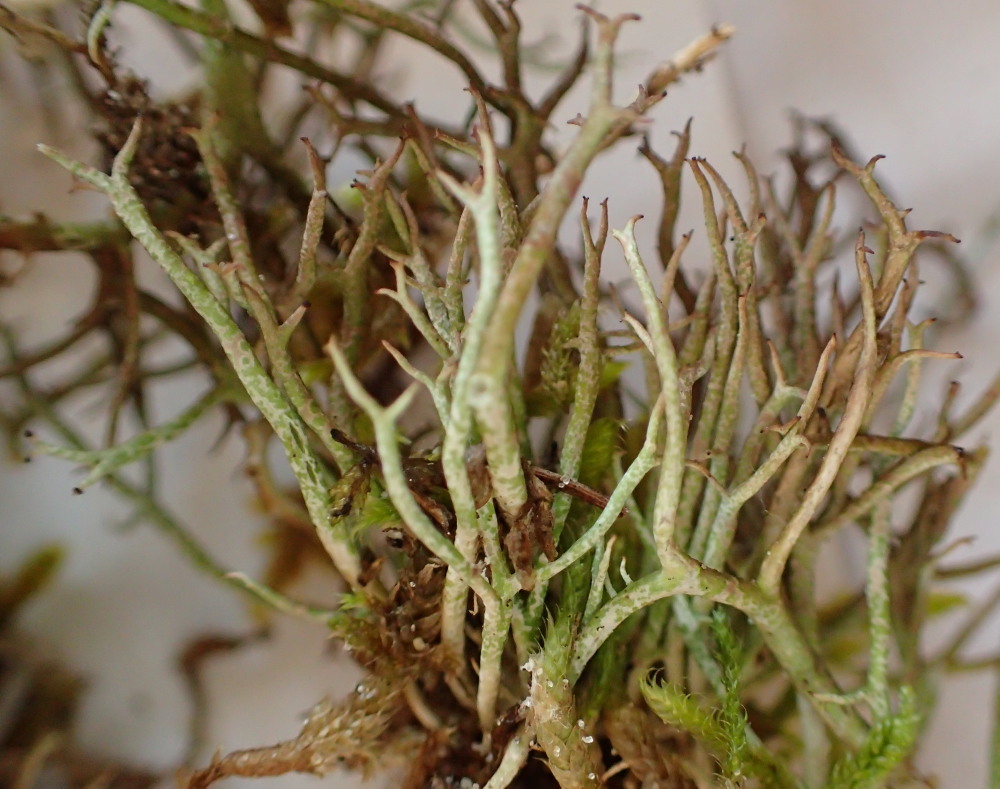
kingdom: Fungi
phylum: Ascomycota
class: Lecanoromycetes
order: Lecanorales
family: Cladoniaceae
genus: Cladonia
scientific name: Cladonia furcata
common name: kløftet bægerlav
